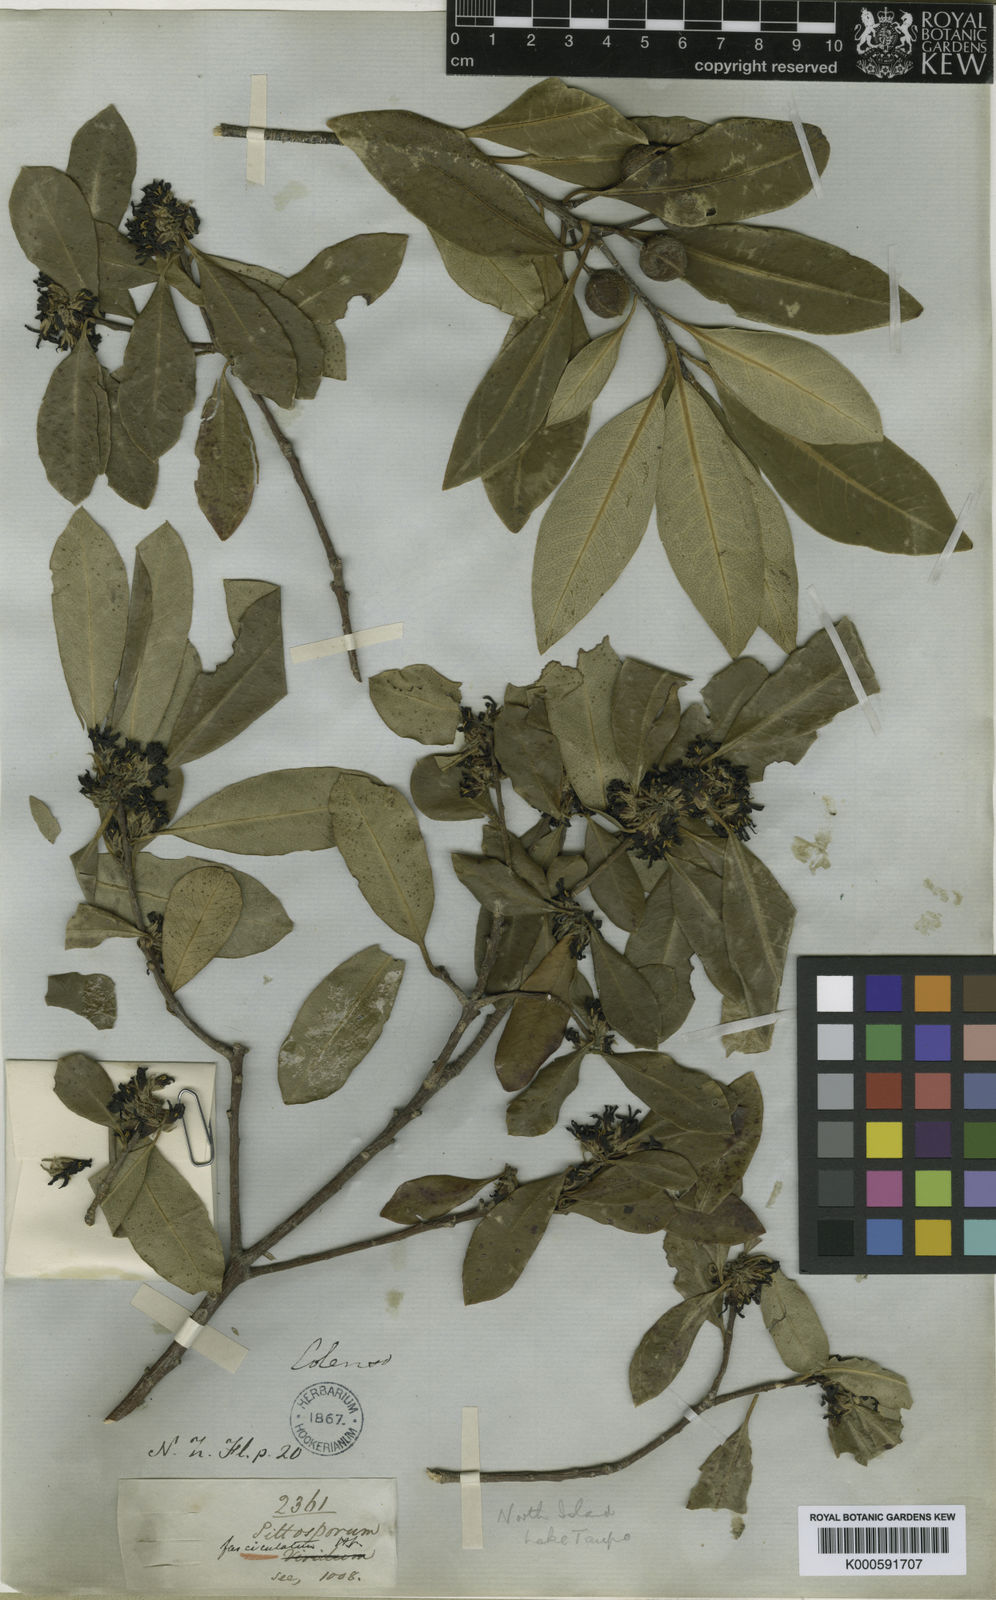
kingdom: Plantae
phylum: Tracheophyta
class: Magnoliopsida
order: Apiales
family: Pittosporaceae
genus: Pittosporum
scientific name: Pittosporum tenuifolium
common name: Kohuhu
